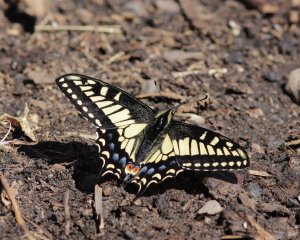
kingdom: Animalia
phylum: Arthropoda
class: Insecta
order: Lepidoptera
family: Papilionidae
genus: Papilio
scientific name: Papilio zelicaon
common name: Anise Swallowtail
